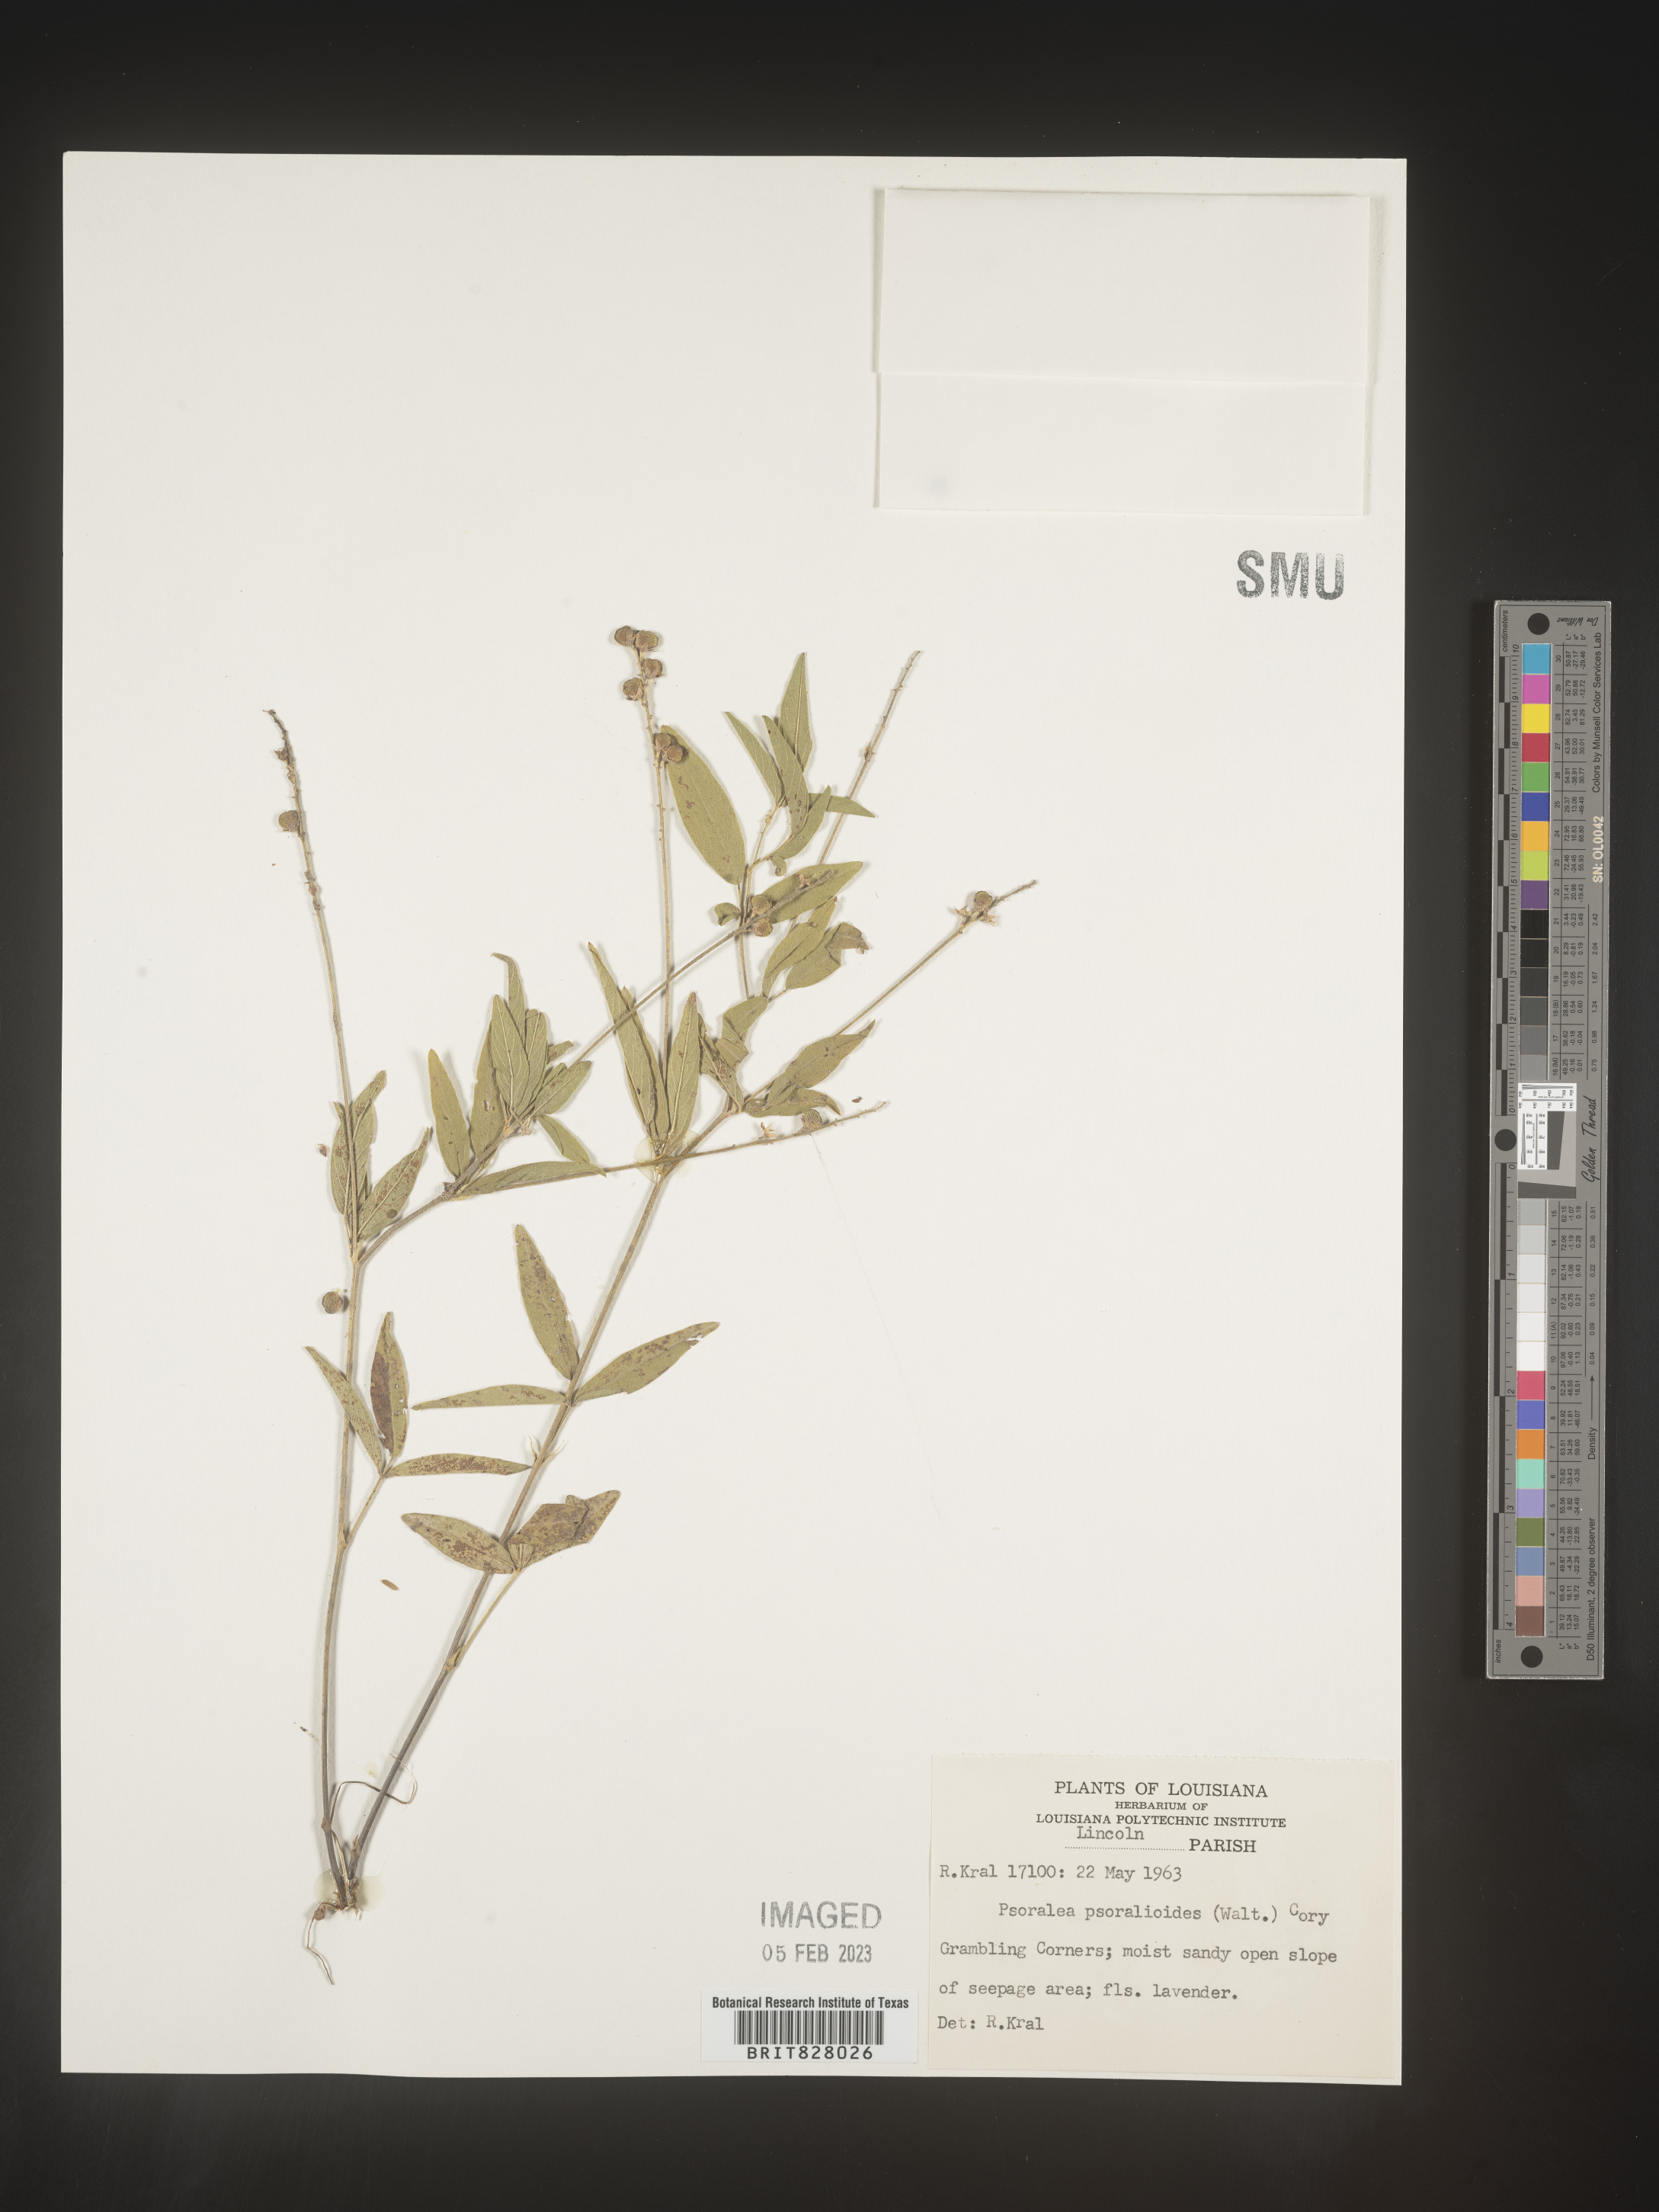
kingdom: Plantae
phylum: Tracheophyta
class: Magnoliopsida
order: Fabales
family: Fabaceae
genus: Orbexilum
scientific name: Orbexilum pedunculatum
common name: Sampson's snakeroot
